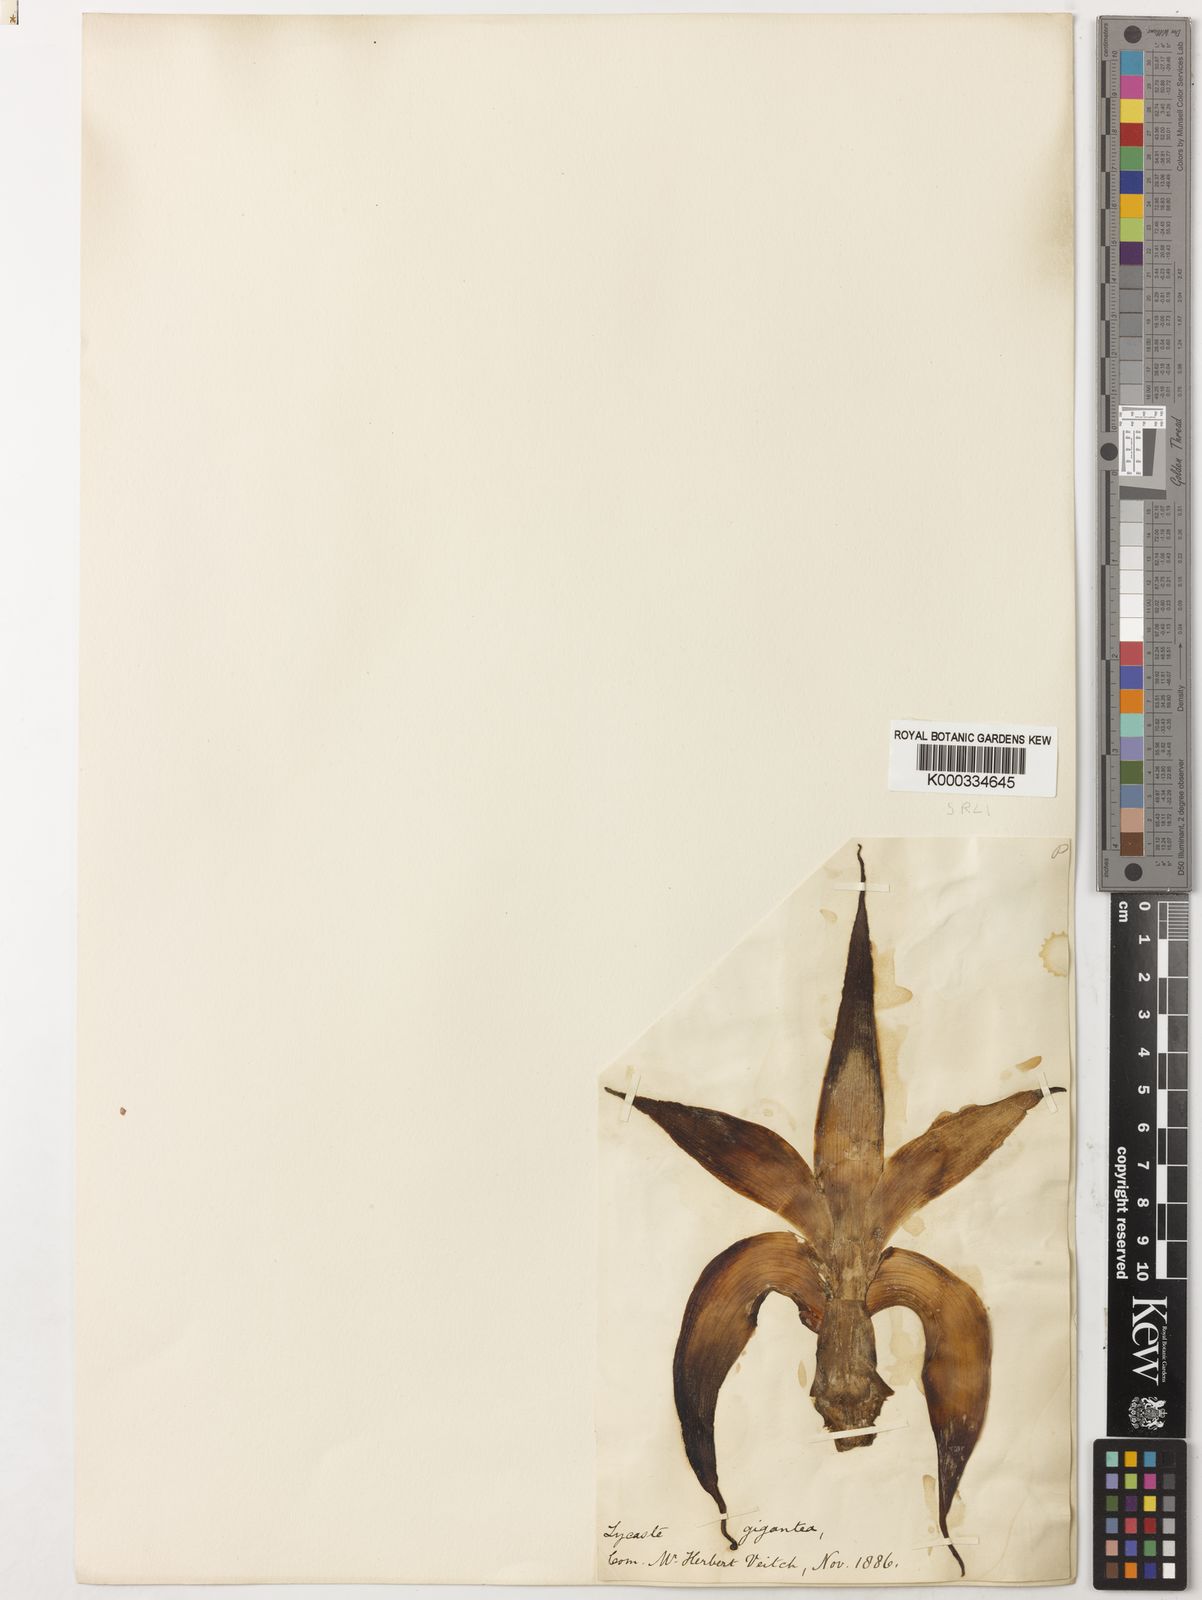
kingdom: Plantae
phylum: Tracheophyta
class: Liliopsida
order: Asparagales
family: Orchidaceae
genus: Ida
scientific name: Ida gigantea
